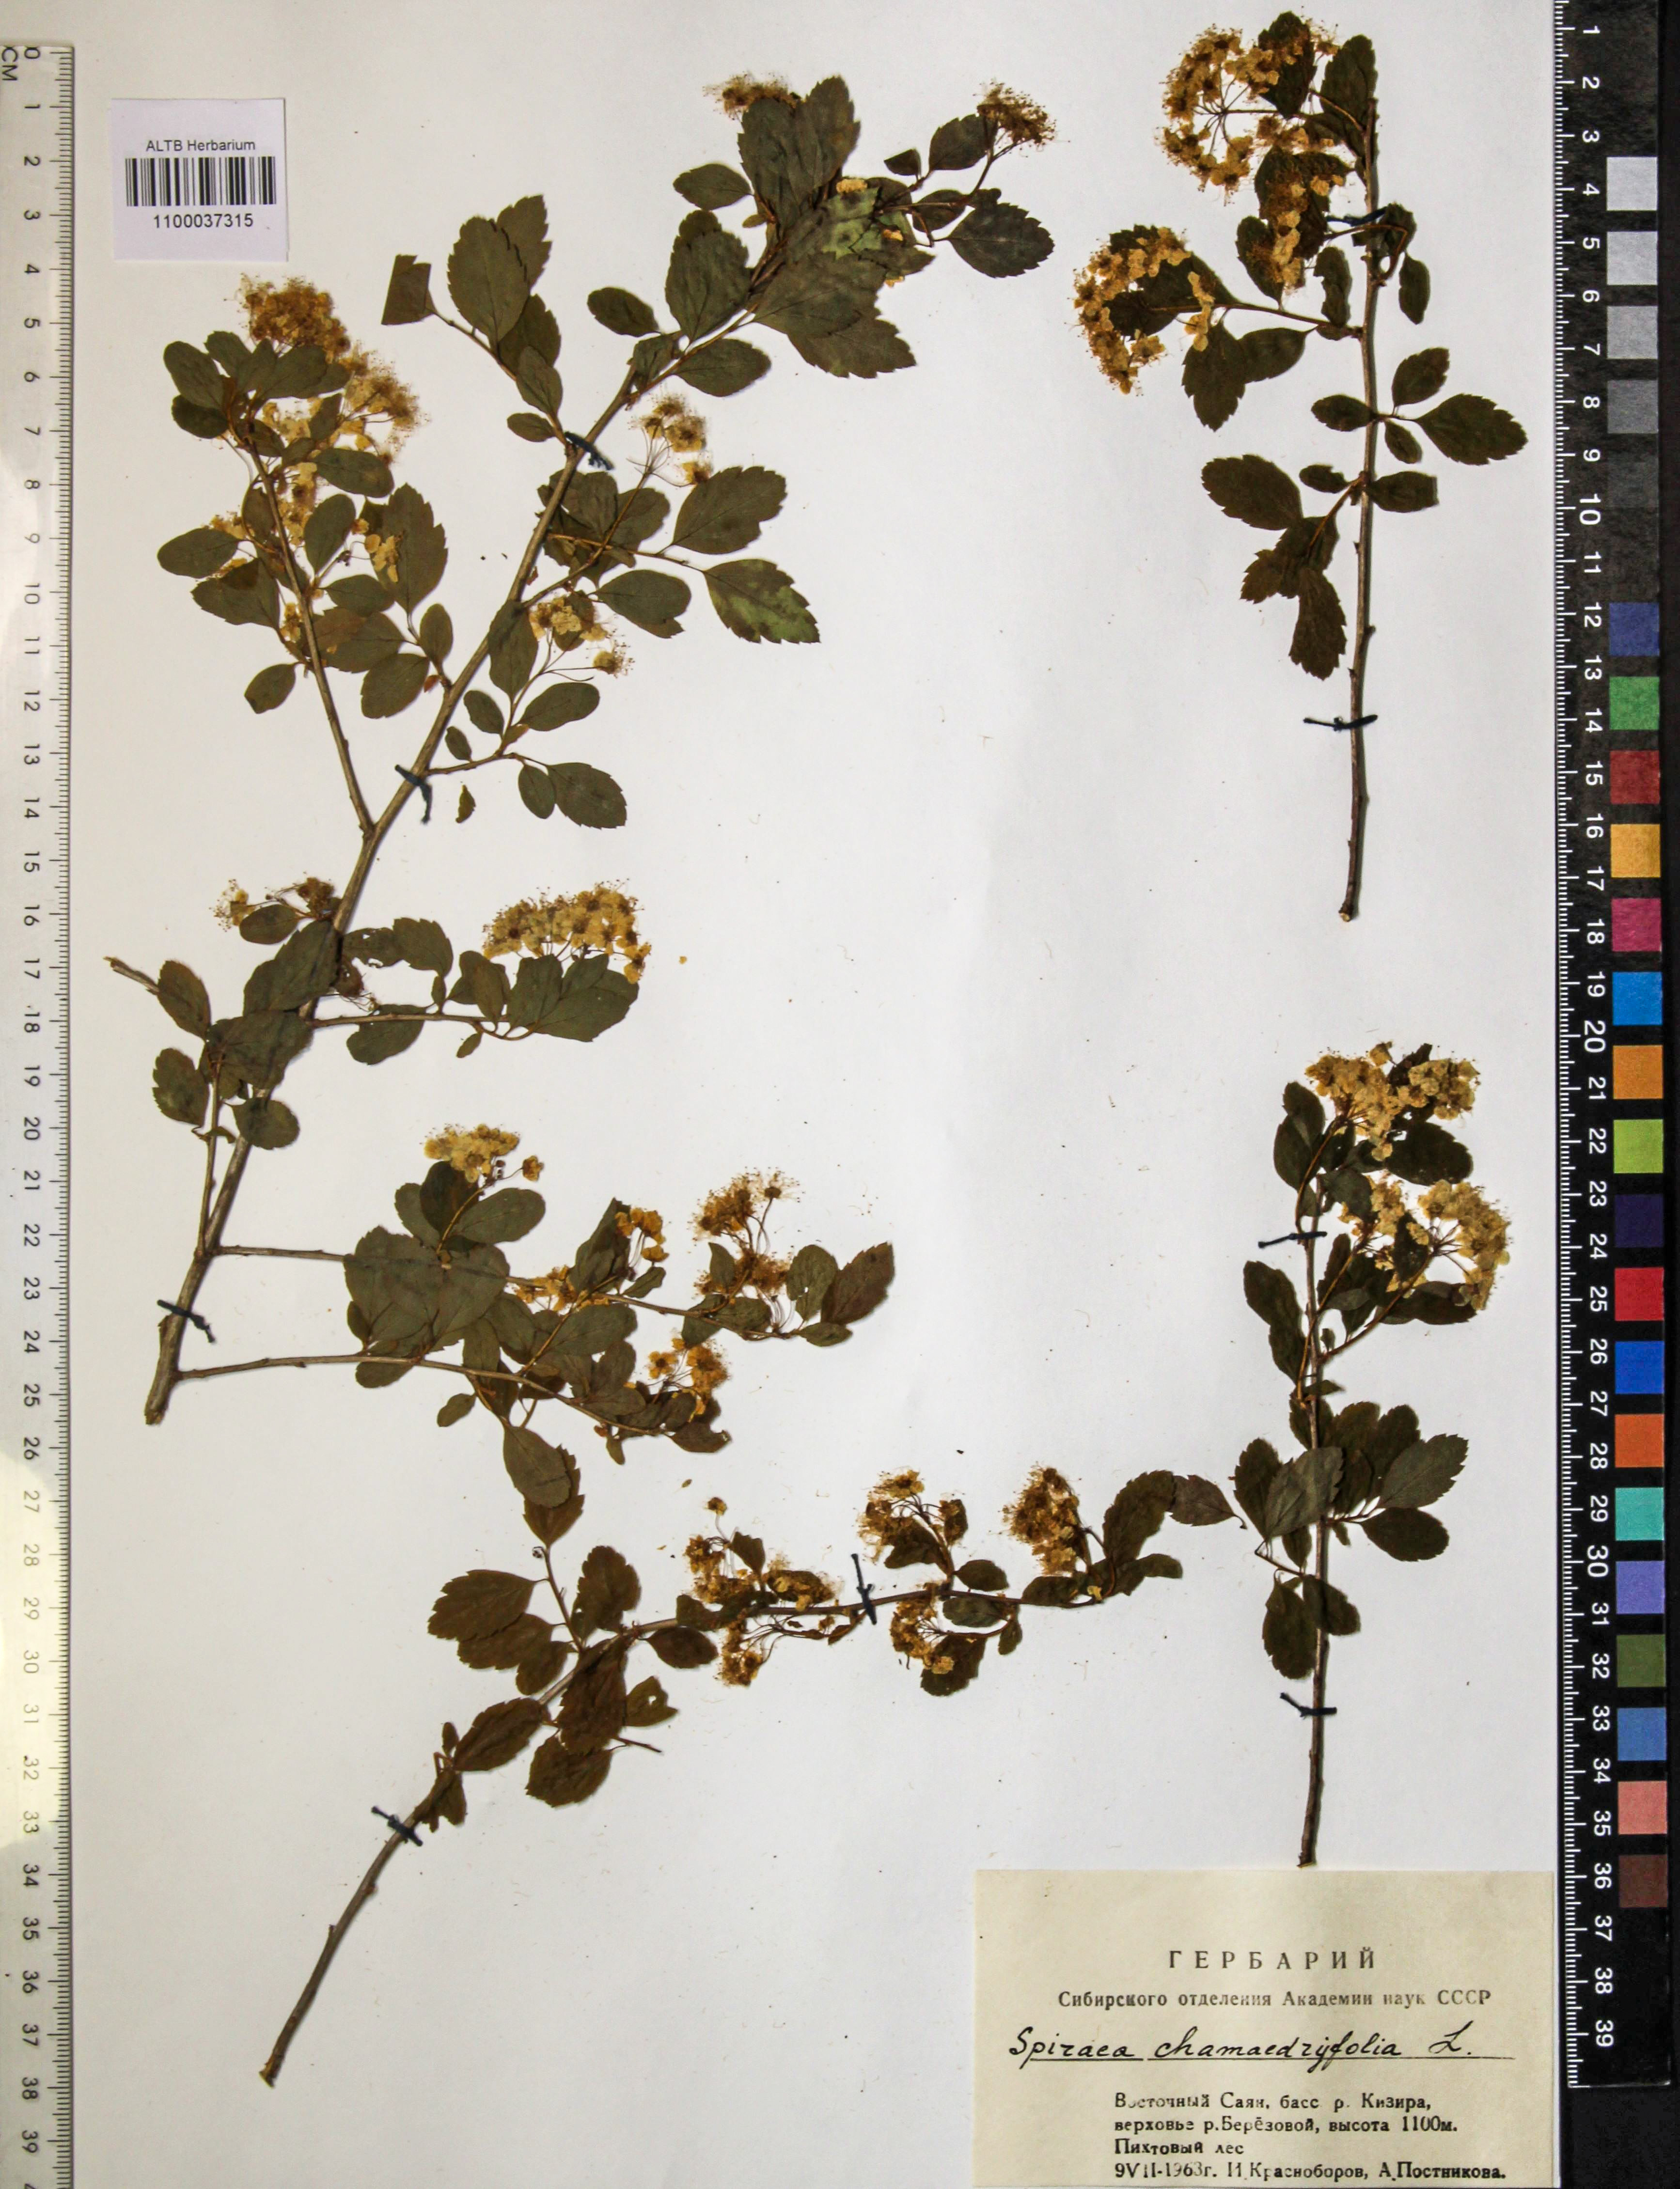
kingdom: Plantae
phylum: Tracheophyta
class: Magnoliopsida
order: Rosales
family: Rosaceae
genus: Spiraea
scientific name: Spiraea chamaedryfolia
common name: Elm-leaved spiraea
